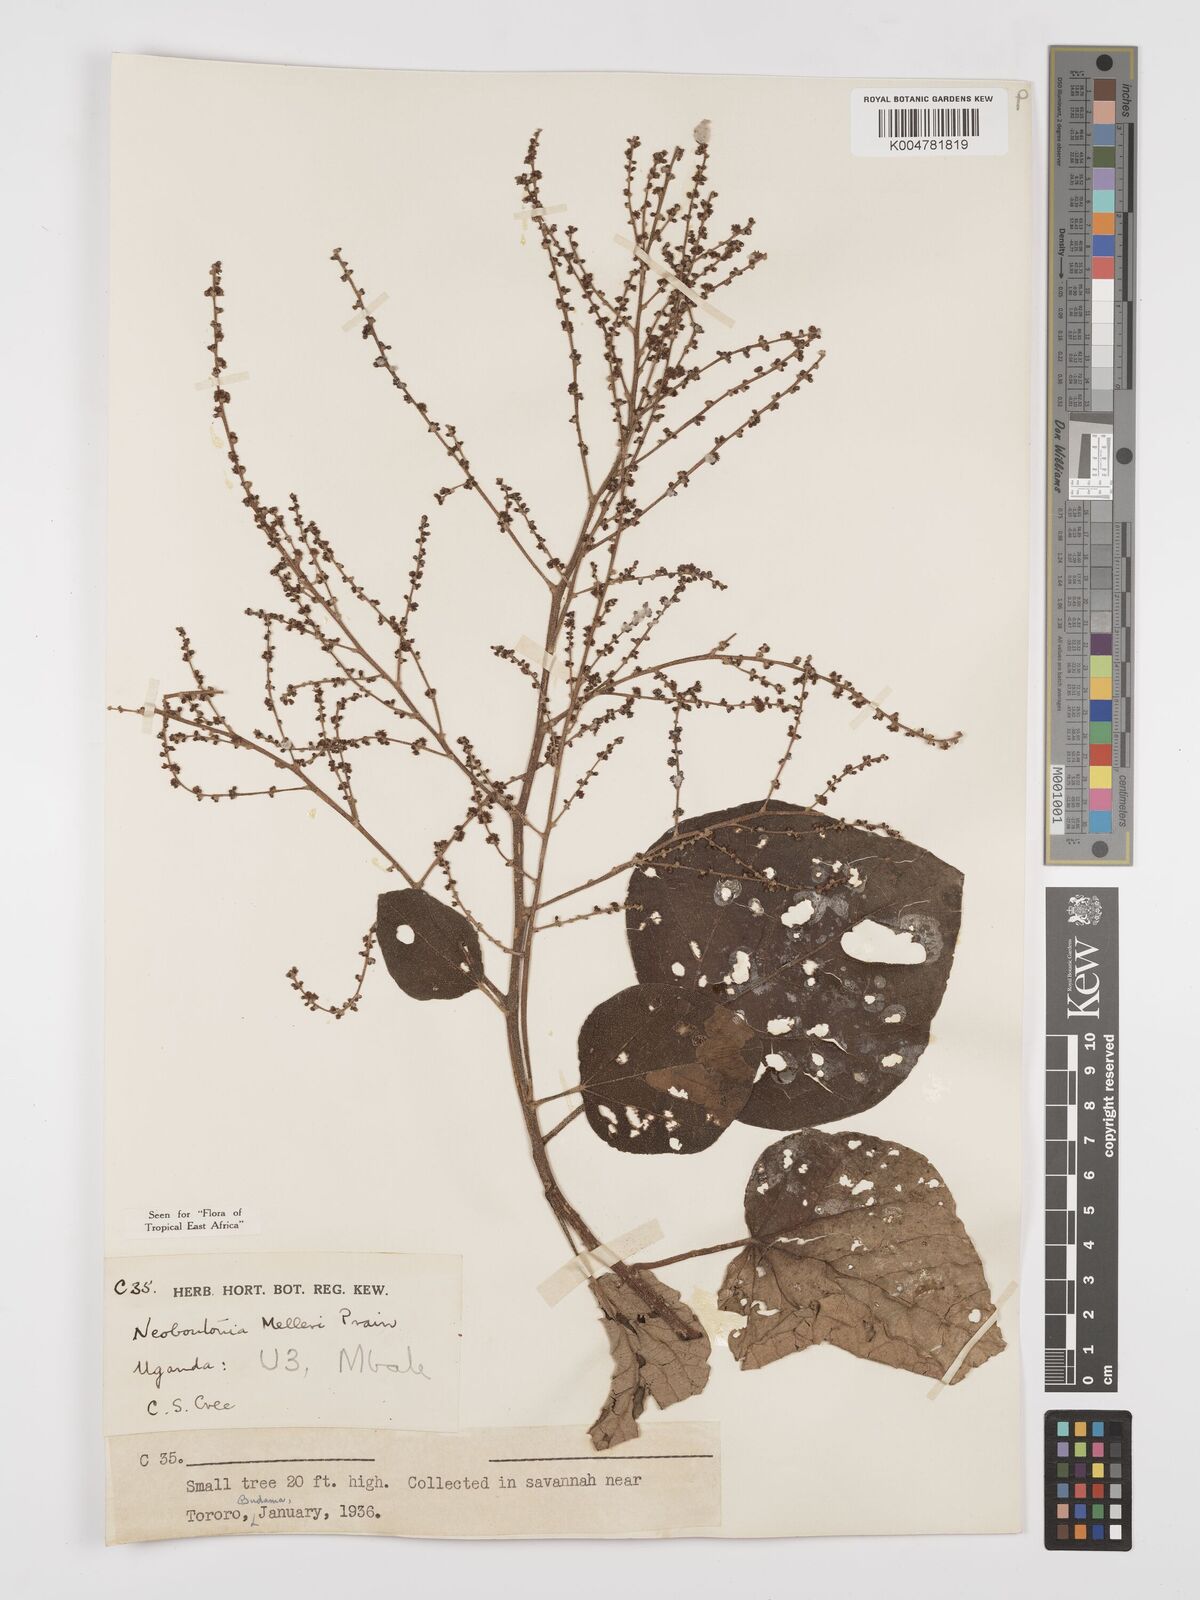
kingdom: Plantae
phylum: Tracheophyta
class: Magnoliopsida
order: Malpighiales
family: Euphorbiaceae
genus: Neoboutonia
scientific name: Neoboutonia melleri
